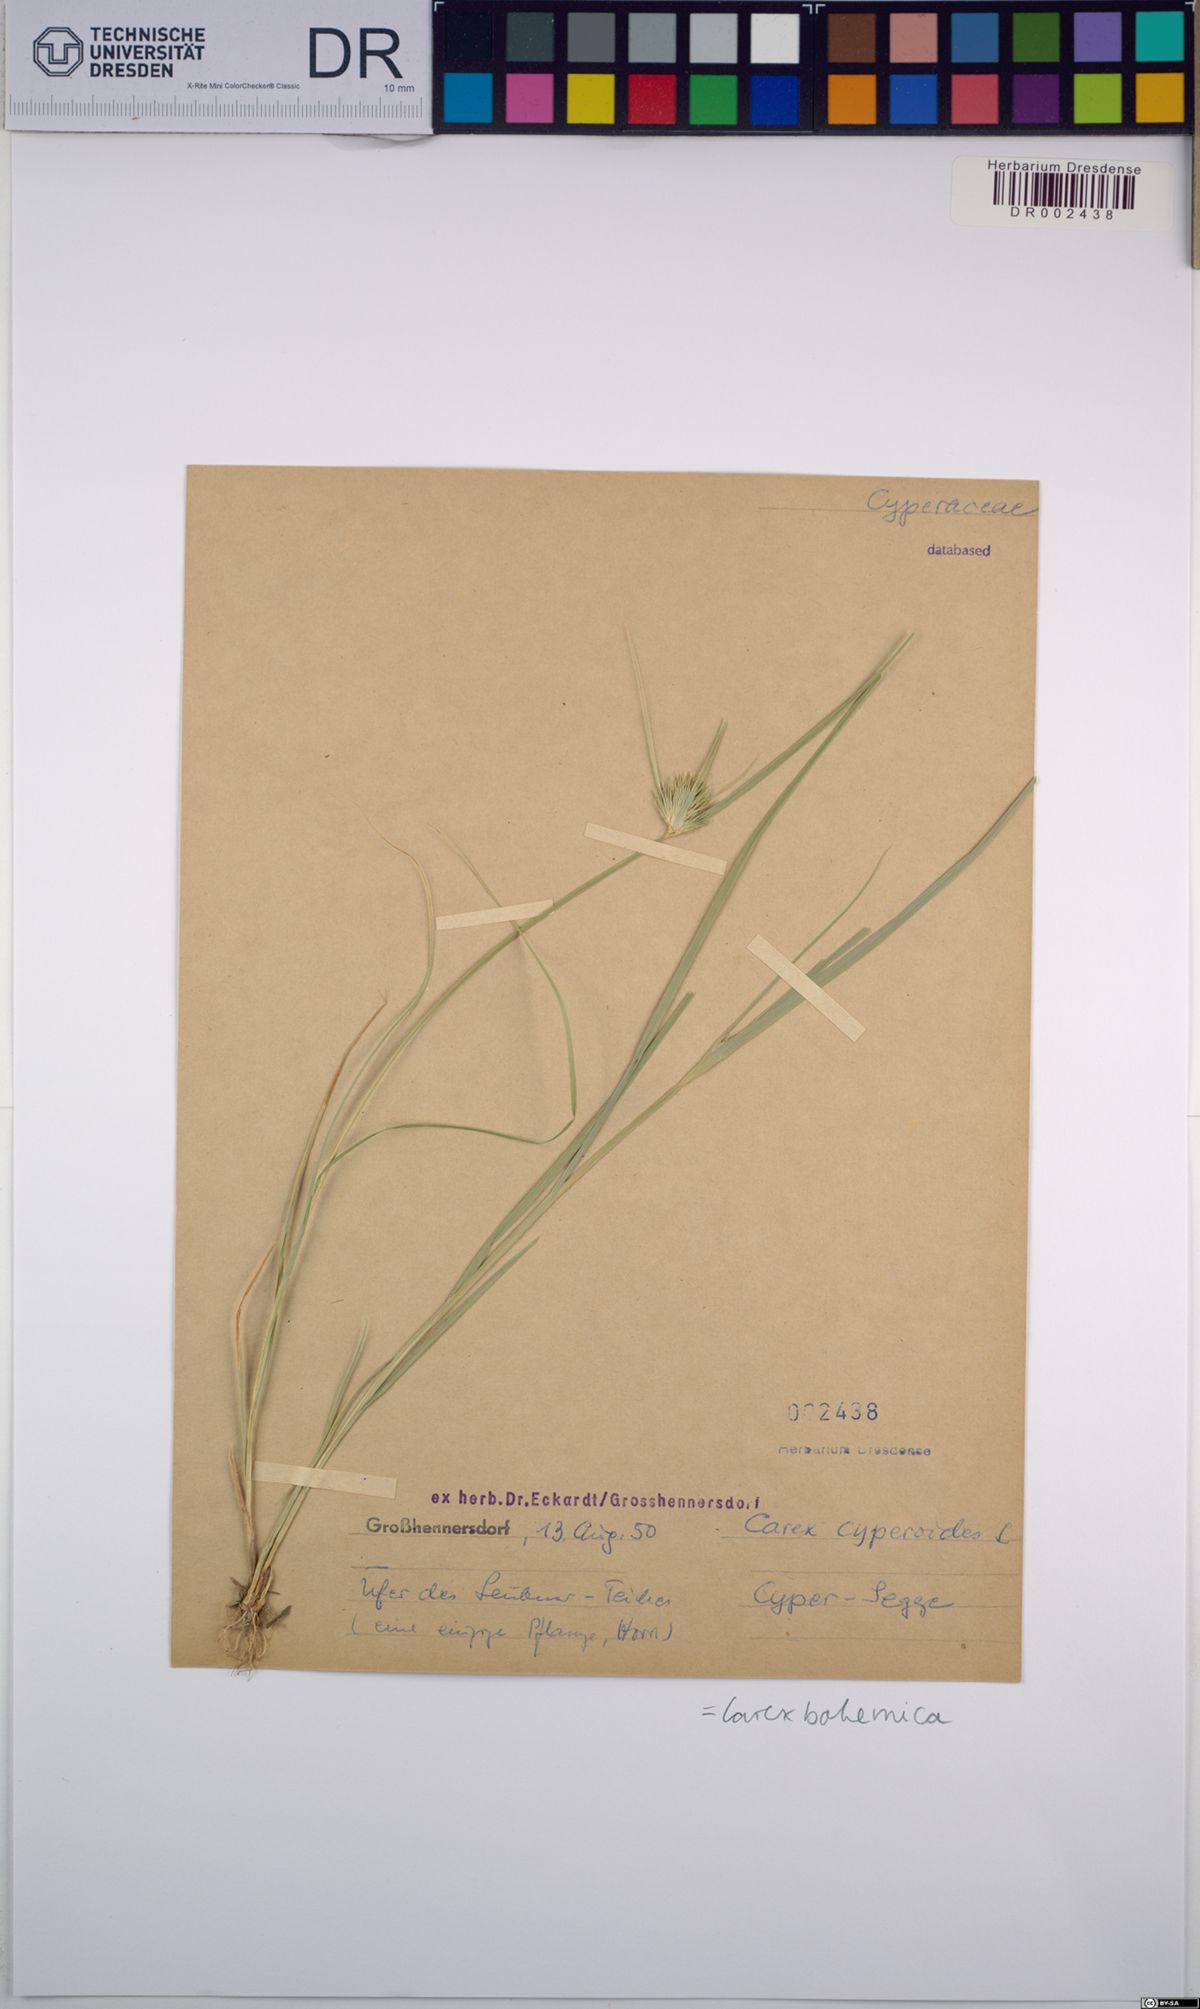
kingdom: Plantae
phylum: Tracheophyta
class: Liliopsida
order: Poales
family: Cyperaceae
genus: Carex
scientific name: Carex bohemica
